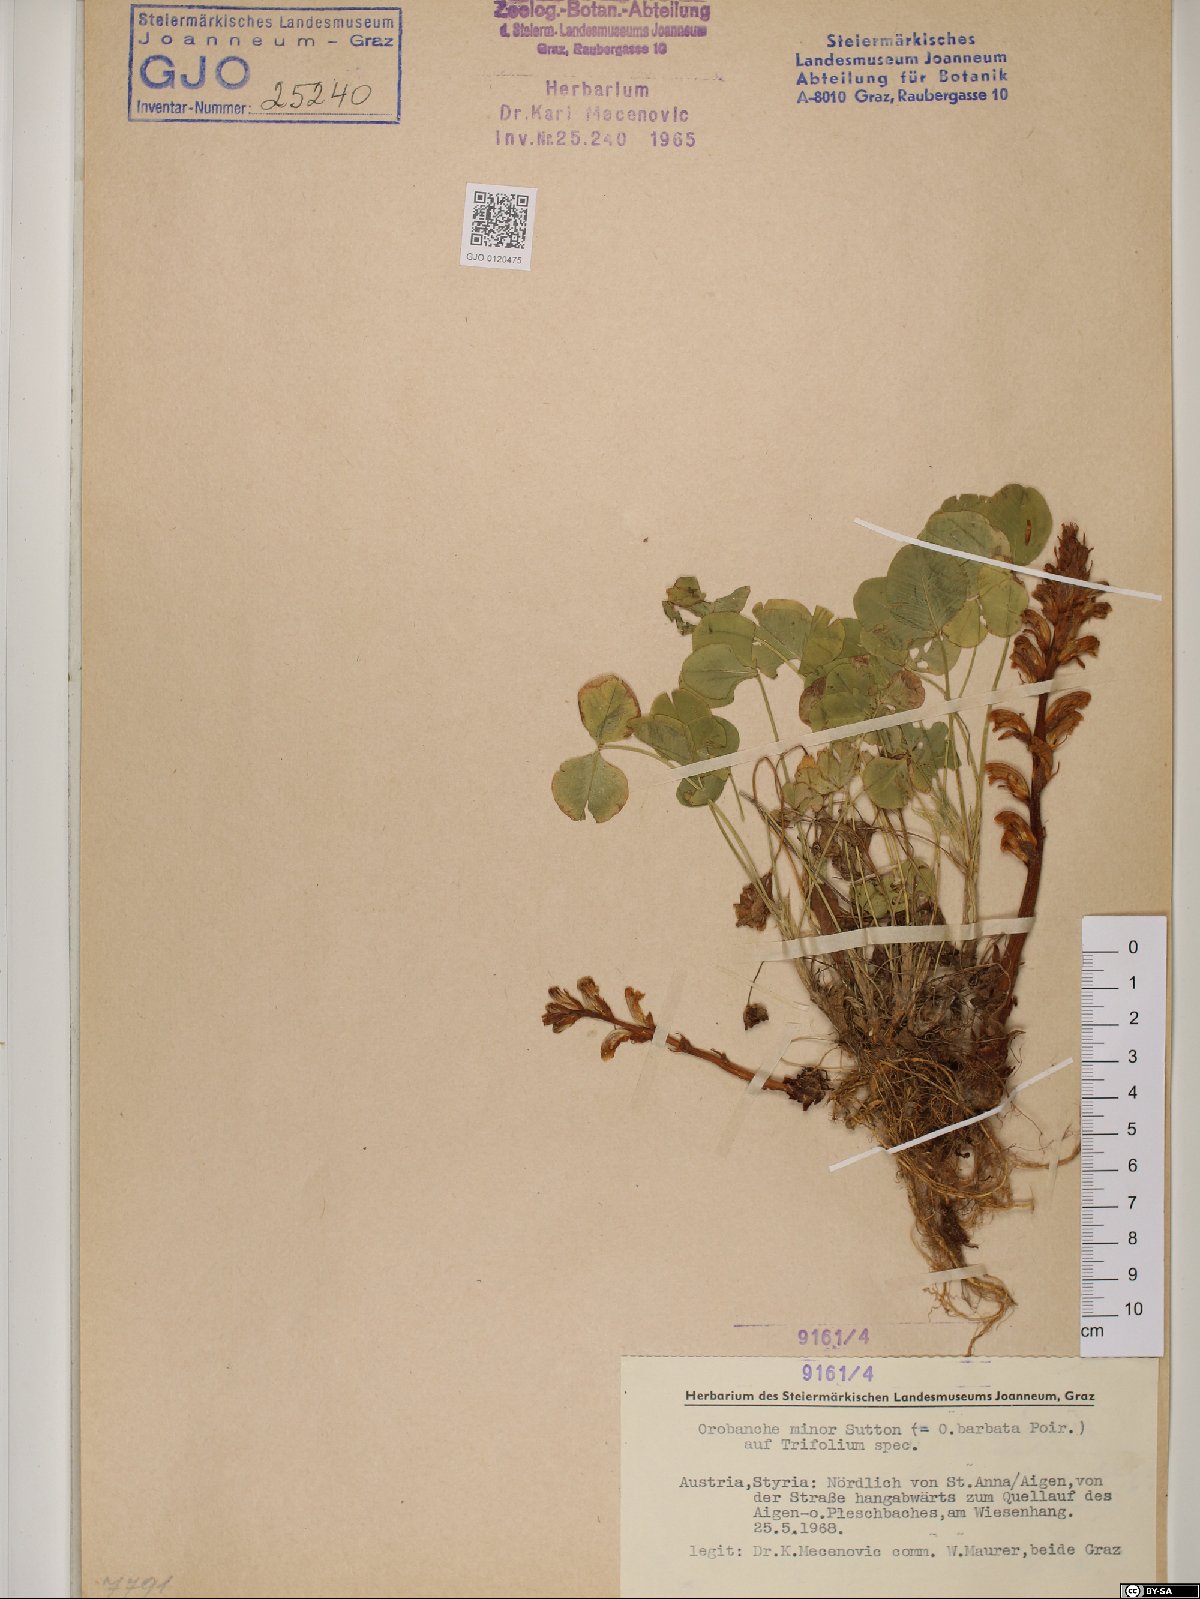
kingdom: Plantae
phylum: Tracheophyta
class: Magnoliopsida
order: Lamiales
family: Orobanchaceae
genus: Orobanche
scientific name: Orobanche minor
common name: Common broomrape
